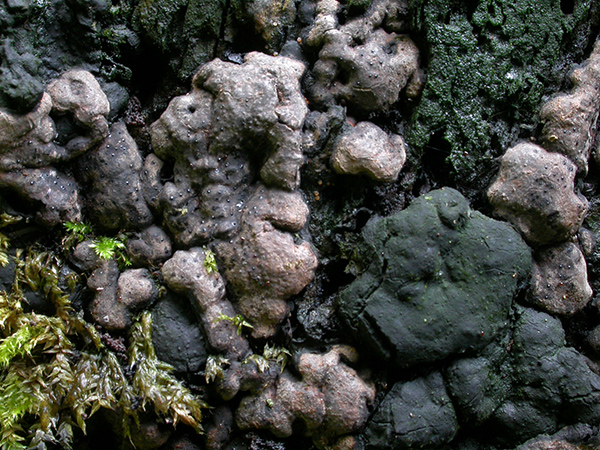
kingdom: Fungi
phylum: Ascomycota
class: Sordariomycetes
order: Xylariales
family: Xylariaceae
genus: Kretzschmaria
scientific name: Kretzschmaria deusta
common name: stor kulsvamp
